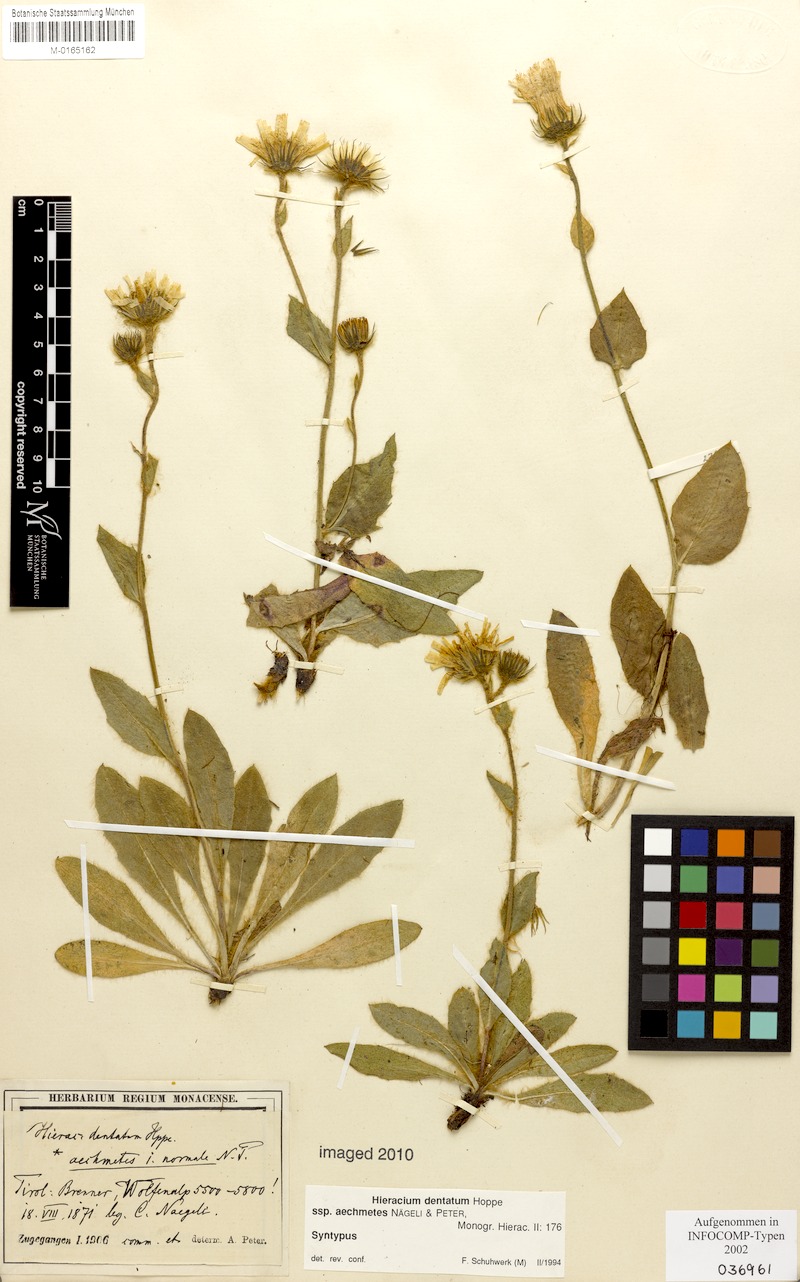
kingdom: Plantae
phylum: Tracheophyta
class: Magnoliopsida
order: Asterales
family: Asteraceae
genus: Hieracium
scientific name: Hieracium dentatum
